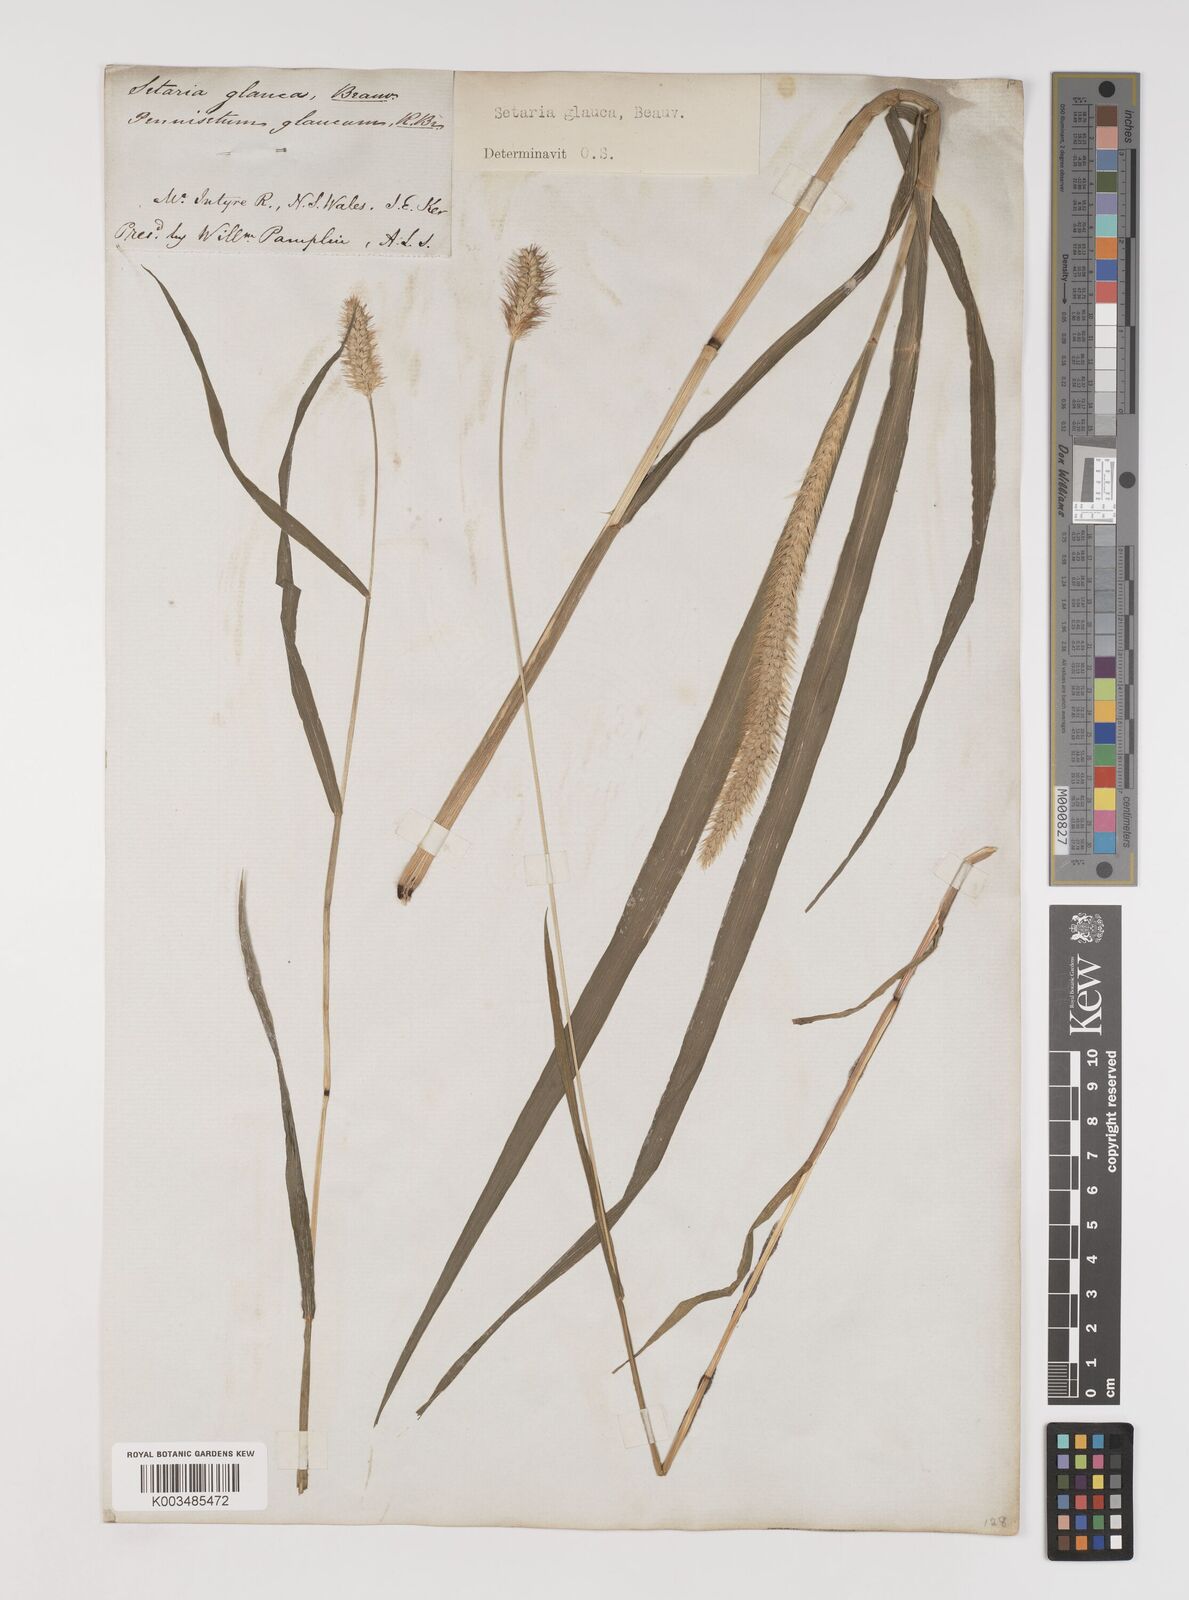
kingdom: Plantae
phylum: Tracheophyta
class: Liliopsida
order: Poales
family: Poaceae
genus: Setaria
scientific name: Setaria pumila
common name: Yellow bristle-grass
